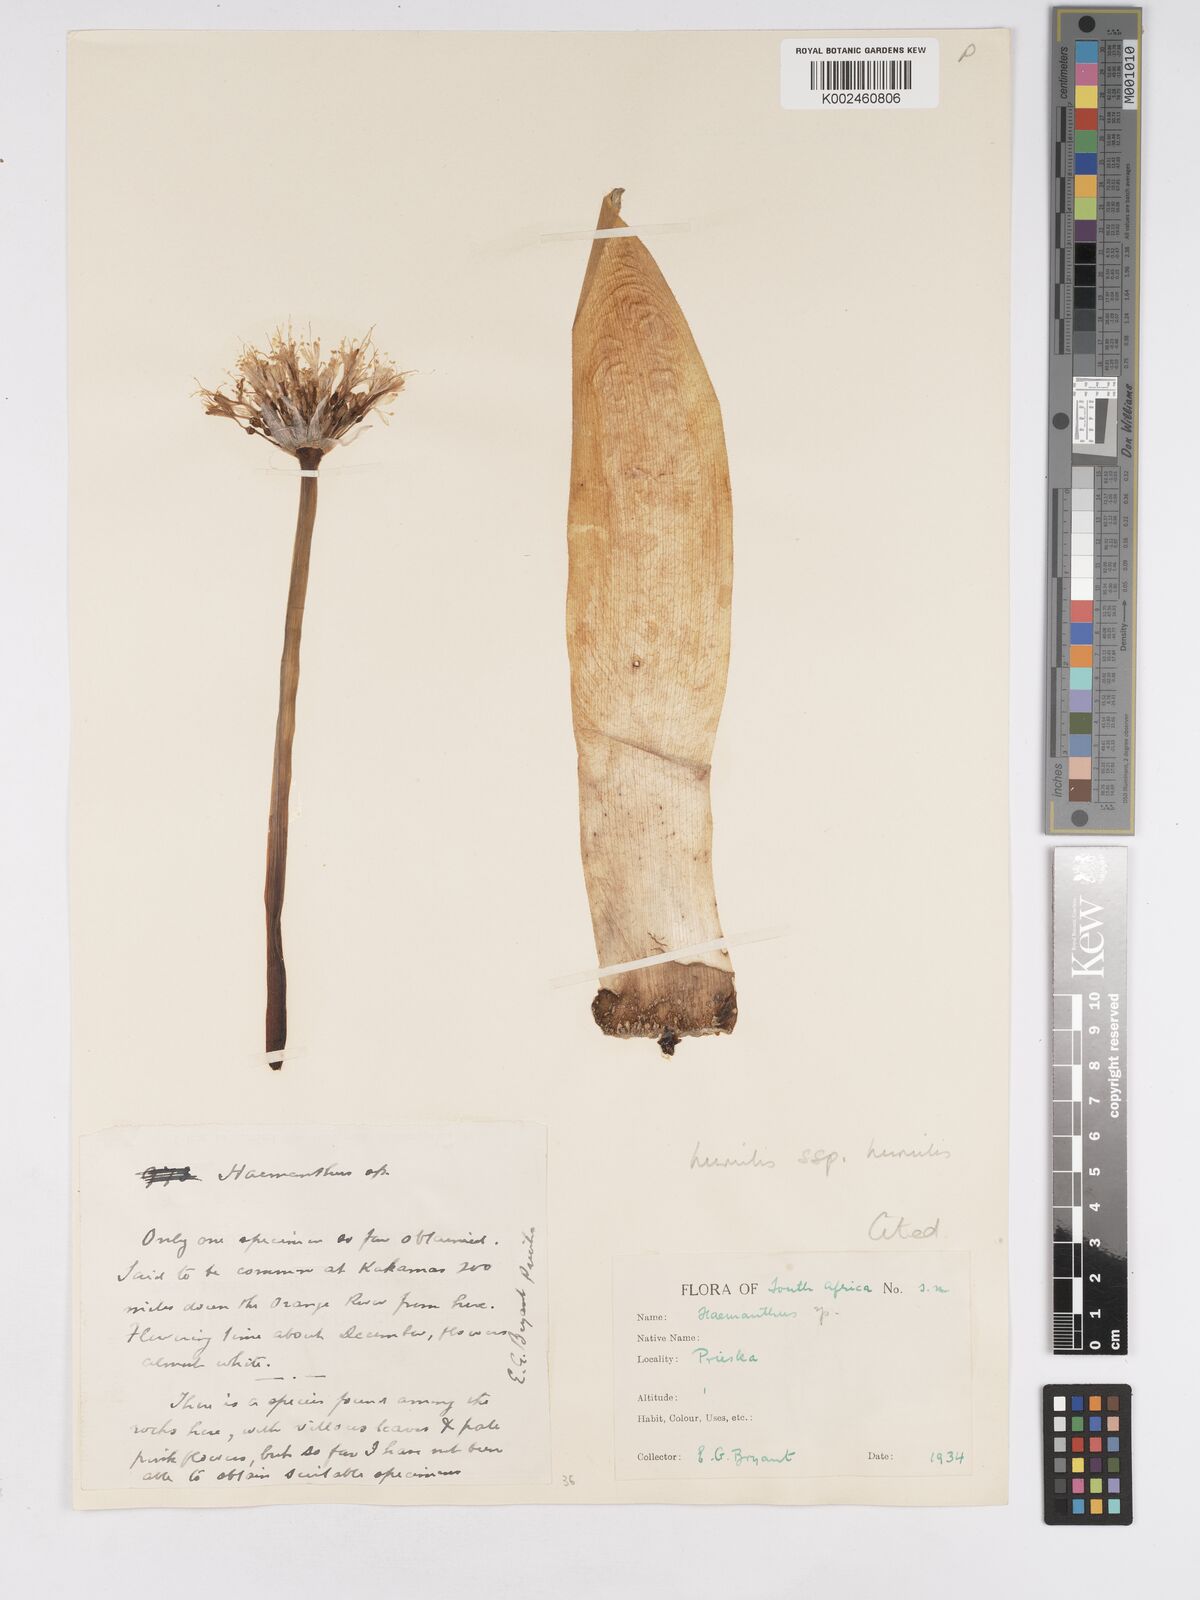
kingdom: Plantae
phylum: Tracheophyta
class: Liliopsida
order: Asparagales
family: Amaryllidaceae
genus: Haemanthus
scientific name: Haemanthus humilis
